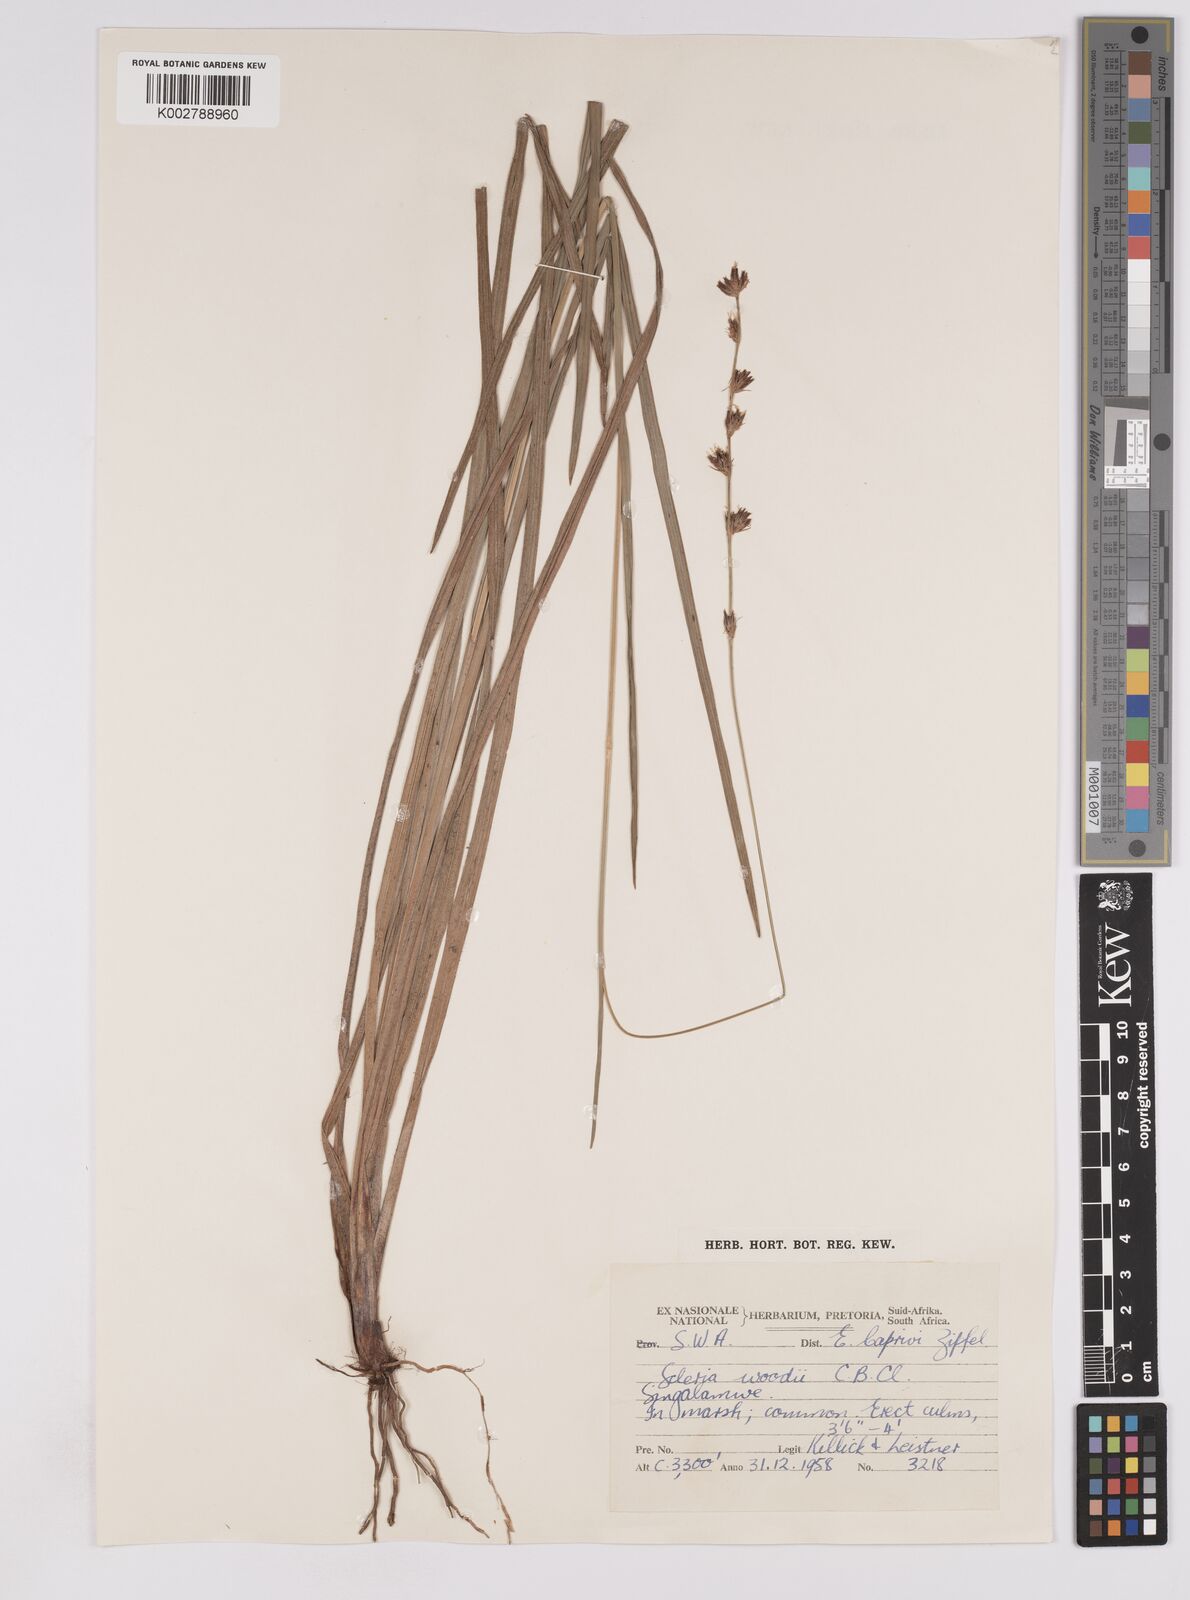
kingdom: Plantae
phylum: Tracheophyta
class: Liliopsida
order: Poales
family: Cyperaceae
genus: Scleria
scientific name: Scleria
